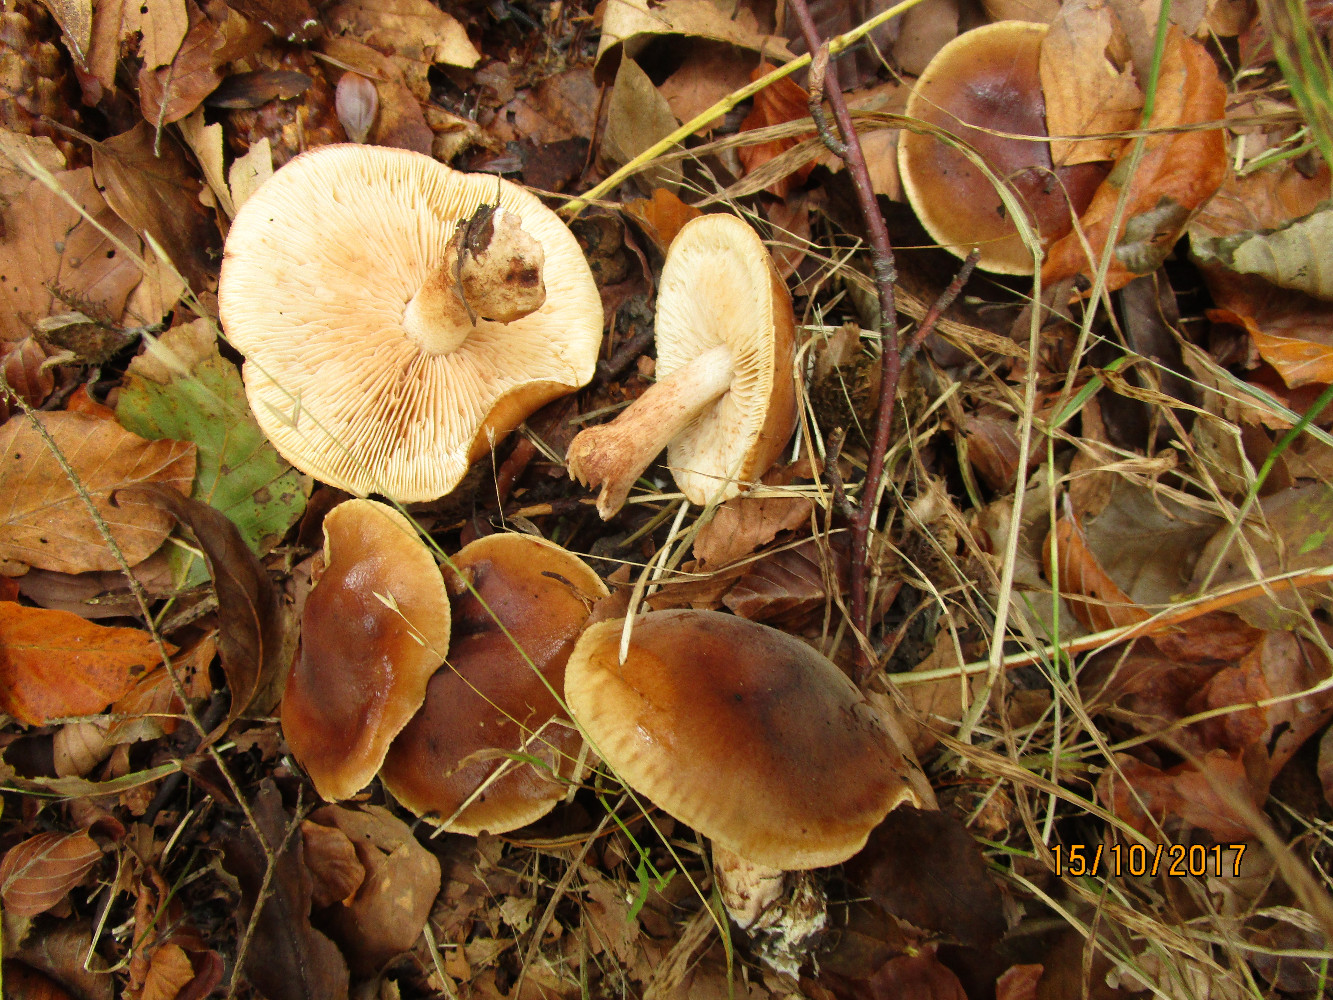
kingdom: Fungi
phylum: Basidiomycota
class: Agaricomycetes
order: Agaricales
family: Tricholomataceae
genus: Tricholoma
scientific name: Tricholoma ustale
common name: sveden ridderhat
